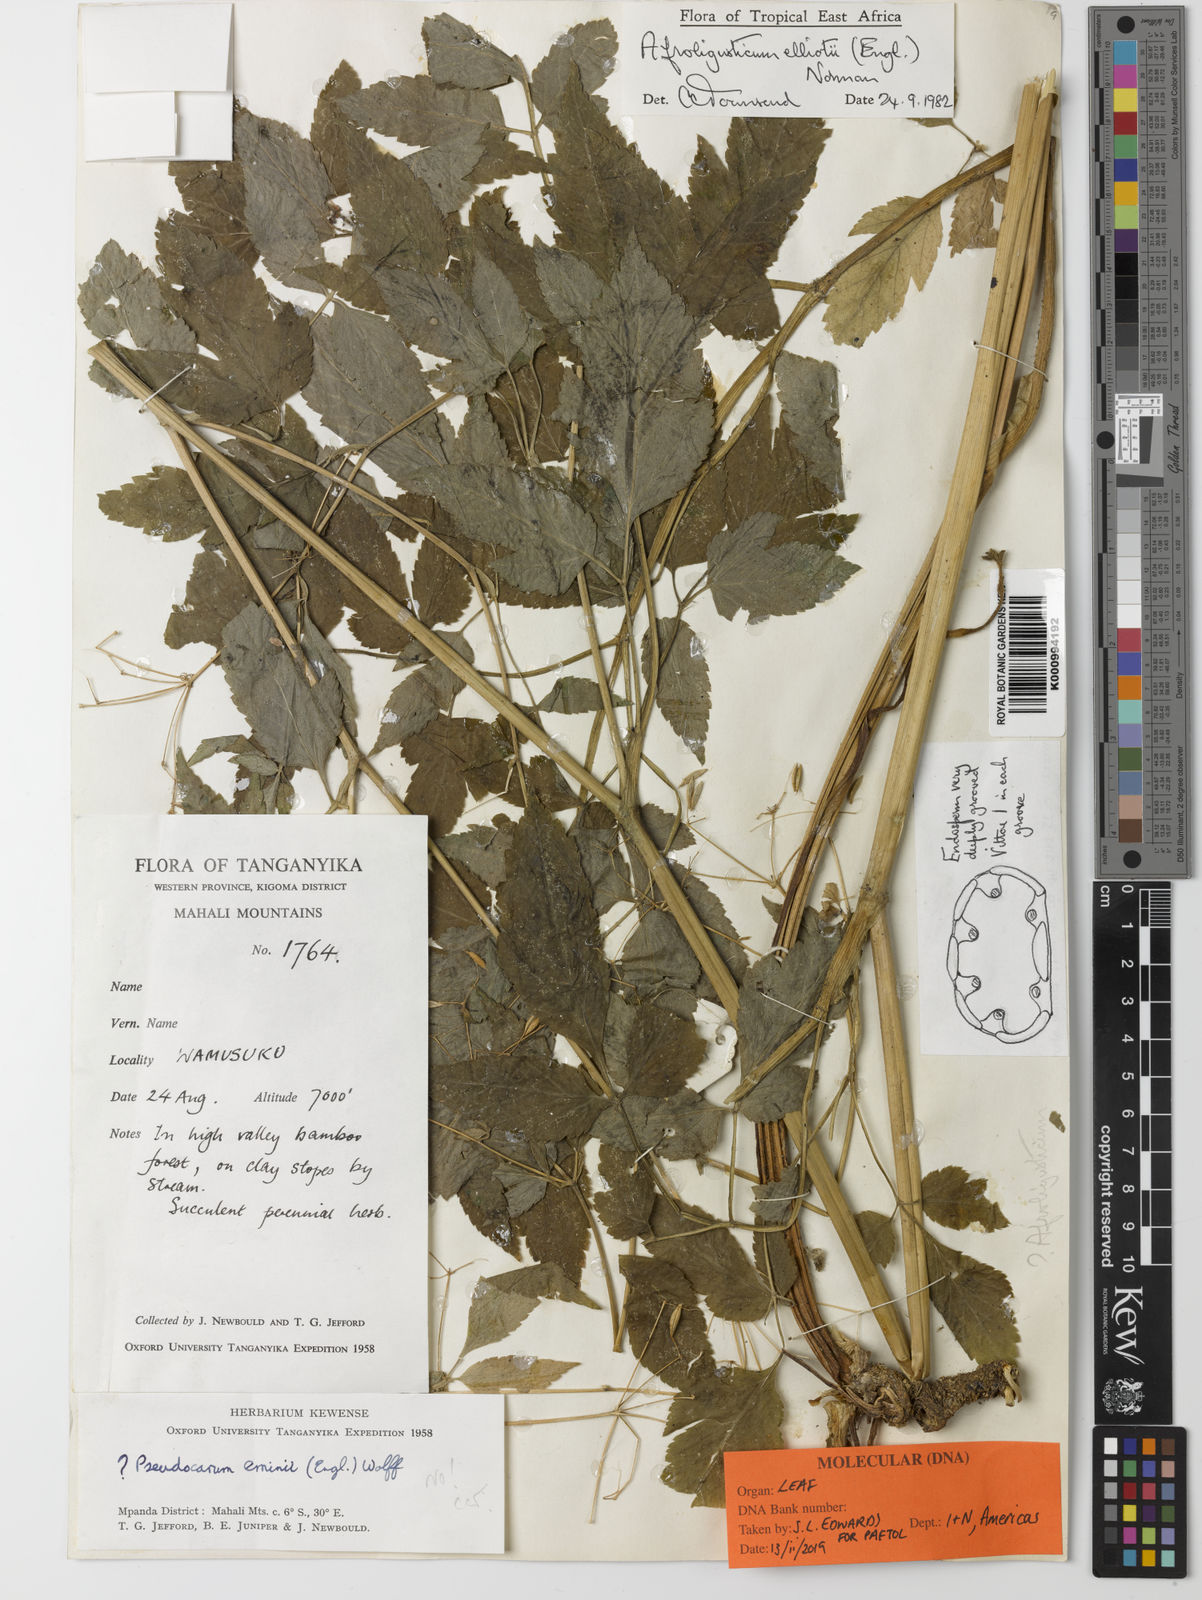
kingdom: Plantae
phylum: Tracheophyta
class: Magnoliopsida
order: Apiales
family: Apiaceae
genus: Afroligusticum
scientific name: Afroligusticum elliotii
